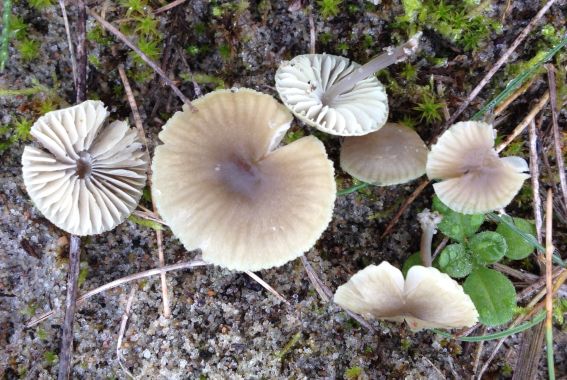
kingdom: Fungi
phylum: Basidiomycota
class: Agaricomycetes
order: Agaricales
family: Mycenaceae
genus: Mycena
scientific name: Mycena chlorantha
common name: klit-huesvamp
